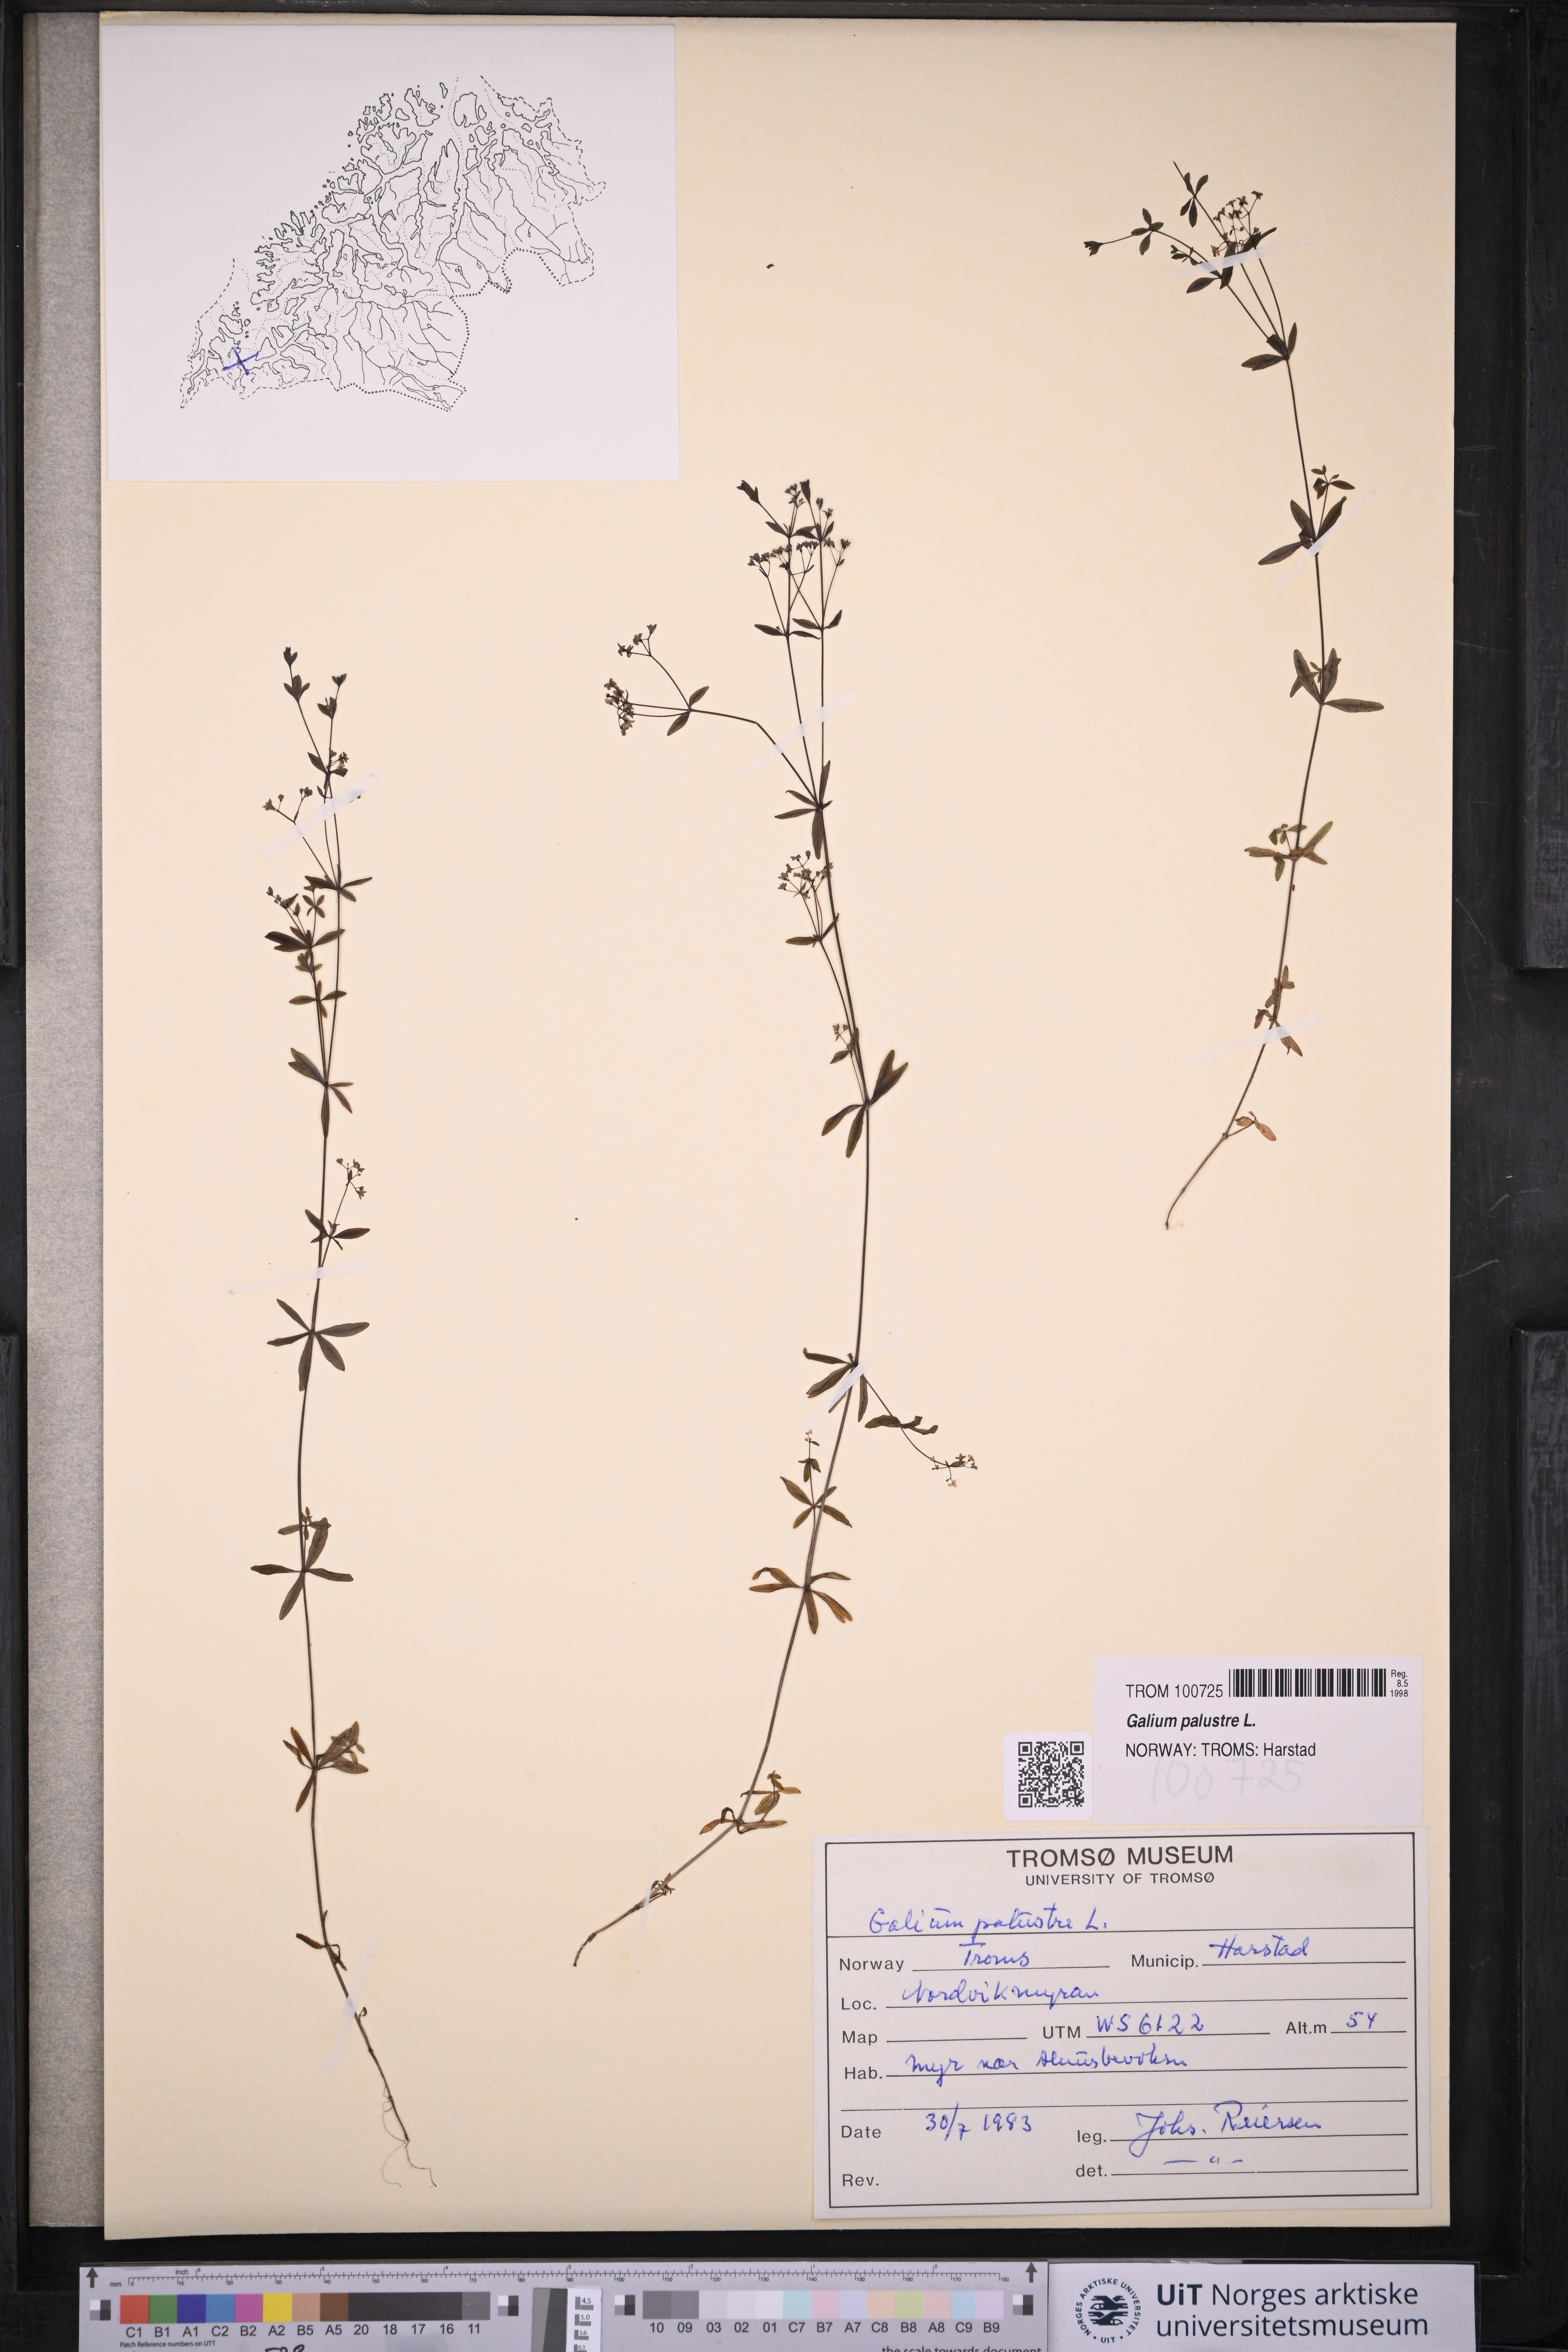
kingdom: Plantae
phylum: Tracheophyta
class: Magnoliopsida
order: Gentianales
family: Rubiaceae
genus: Galium
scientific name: Galium palustre
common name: Common marsh-bedstraw
